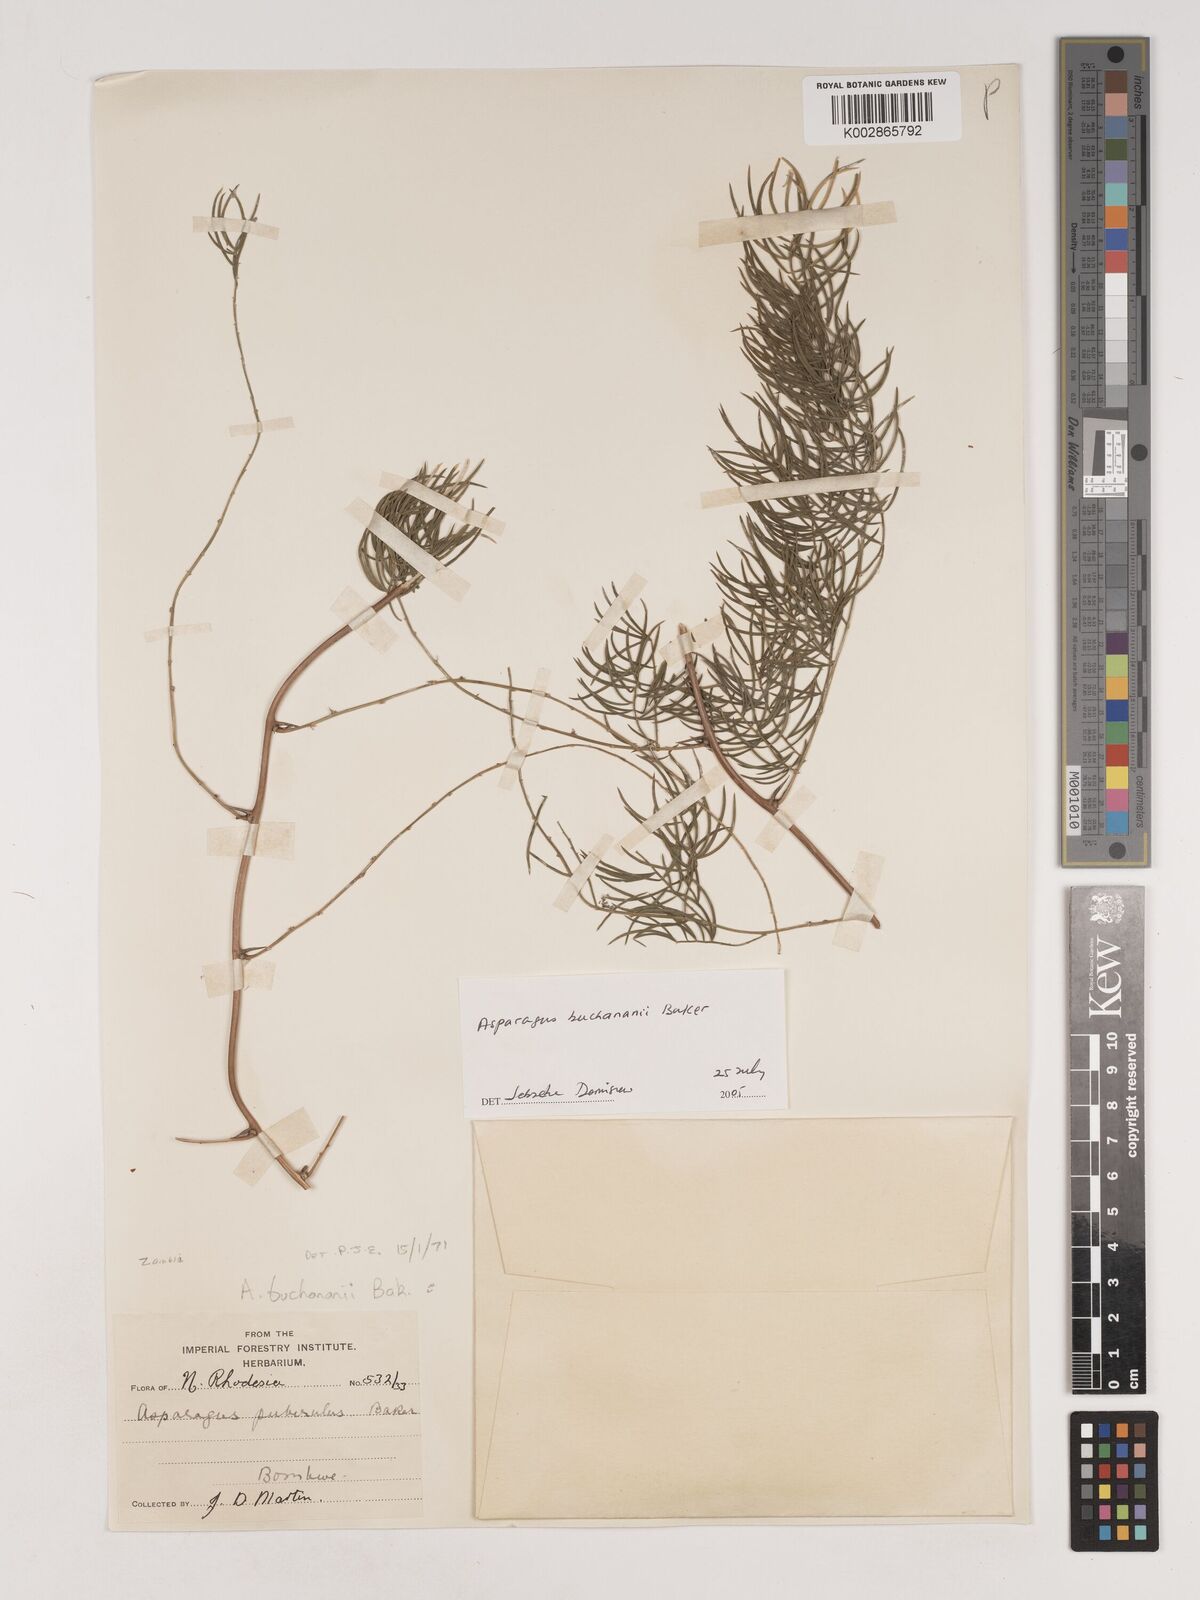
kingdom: Plantae
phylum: Tracheophyta
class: Liliopsida
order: Asparagales
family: Asparagaceae
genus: Asparagus
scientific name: Asparagus buchananii
